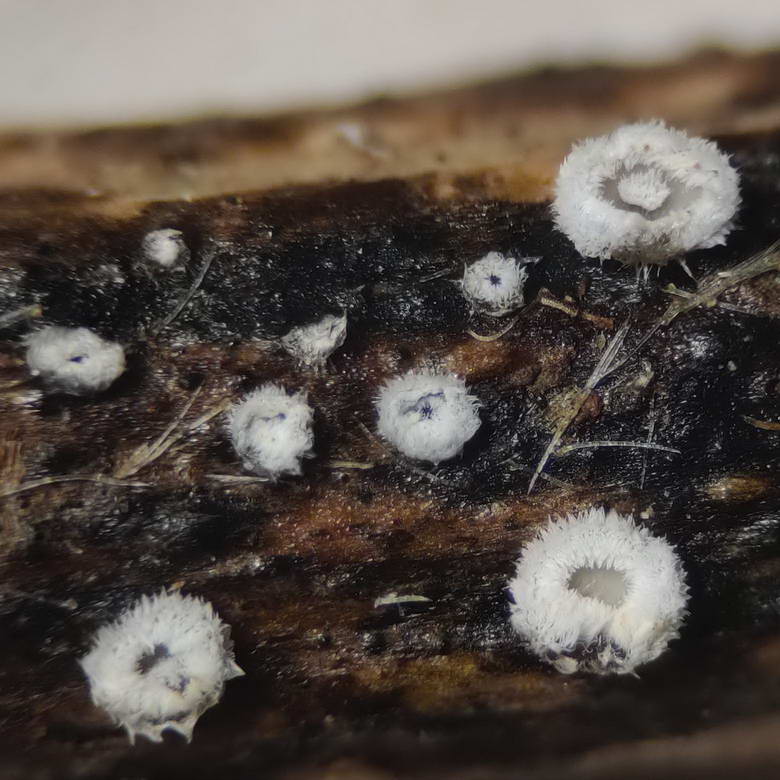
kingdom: Fungi
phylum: Basidiomycota
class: Agaricomycetes
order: Agaricales
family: Niaceae
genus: Lachnella
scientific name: Lachnella alboviolascens
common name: grå frynserede
